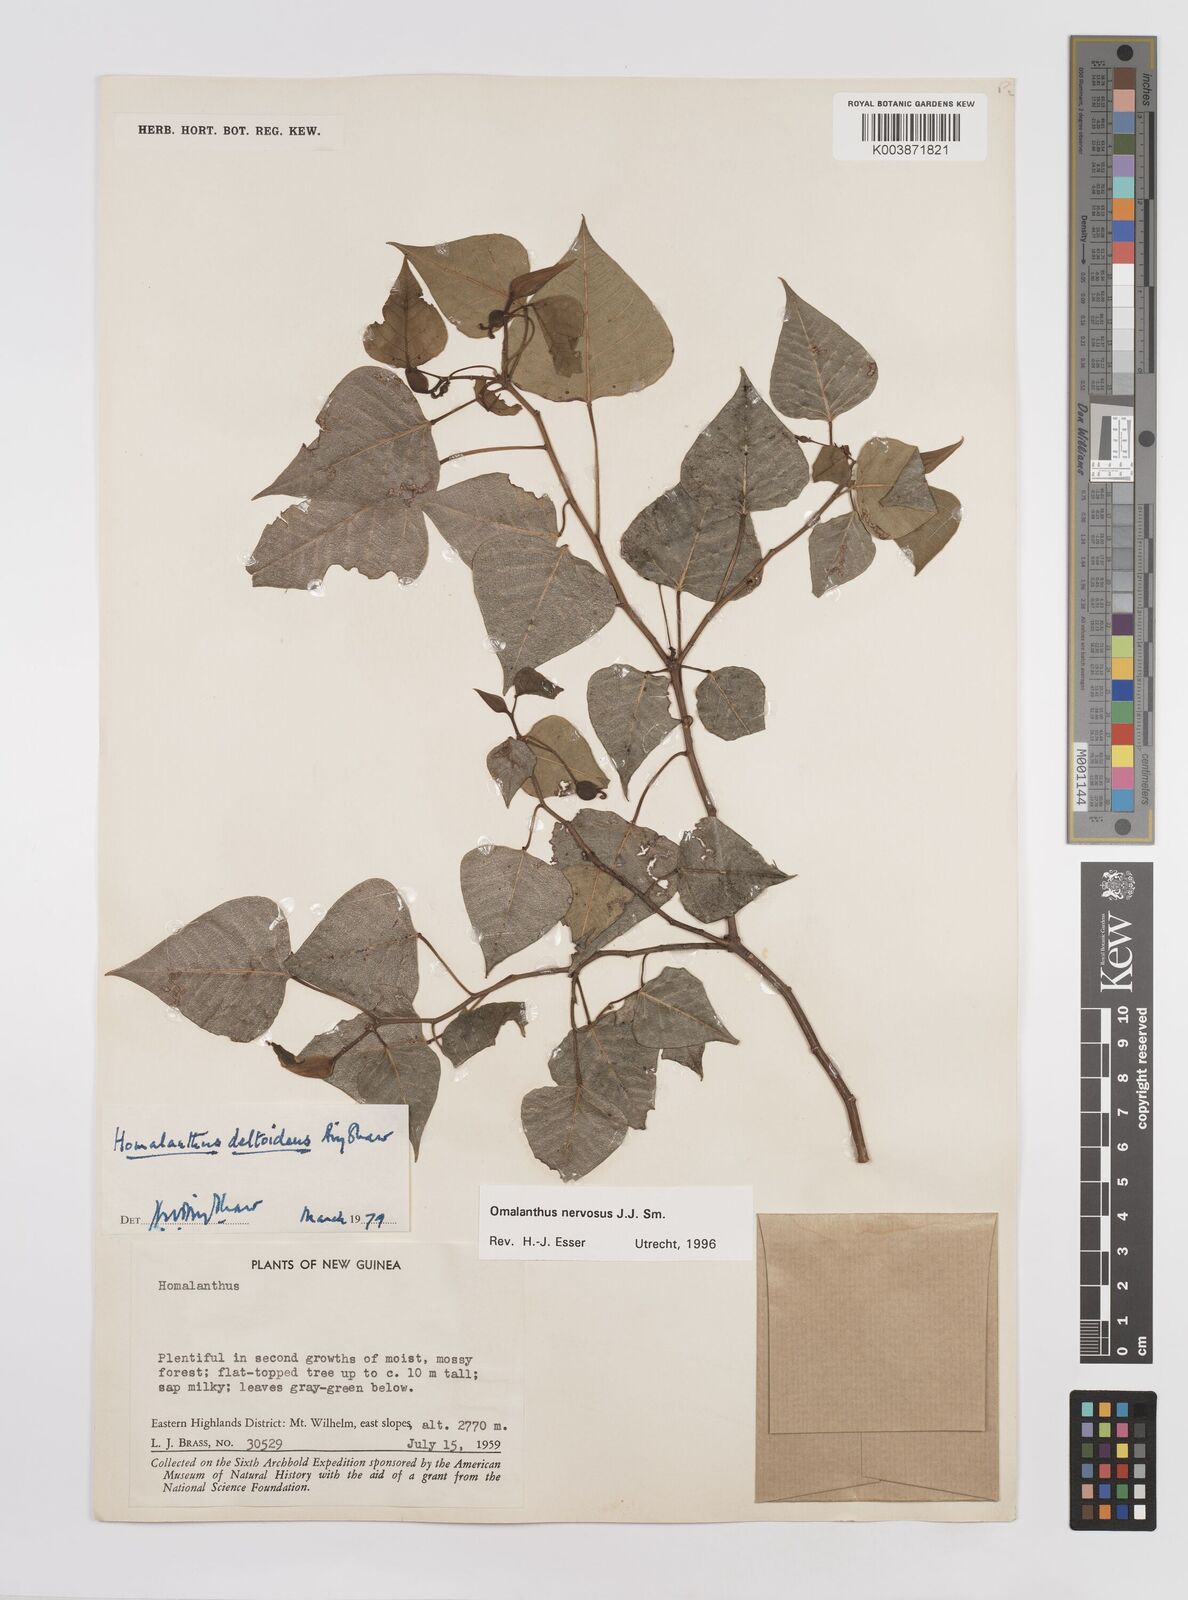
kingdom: Plantae
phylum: Tracheophyta
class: Magnoliopsida
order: Malpighiales
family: Euphorbiaceae
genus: Homalanthus
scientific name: Homalanthus nervosus
